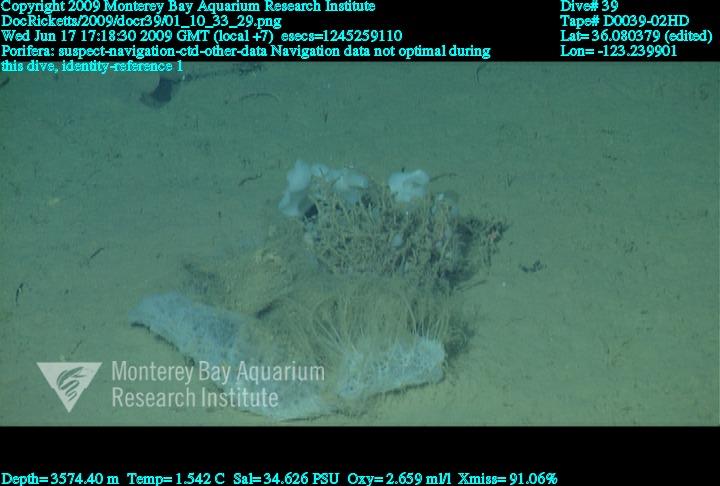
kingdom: Animalia
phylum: Porifera
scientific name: Porifera
